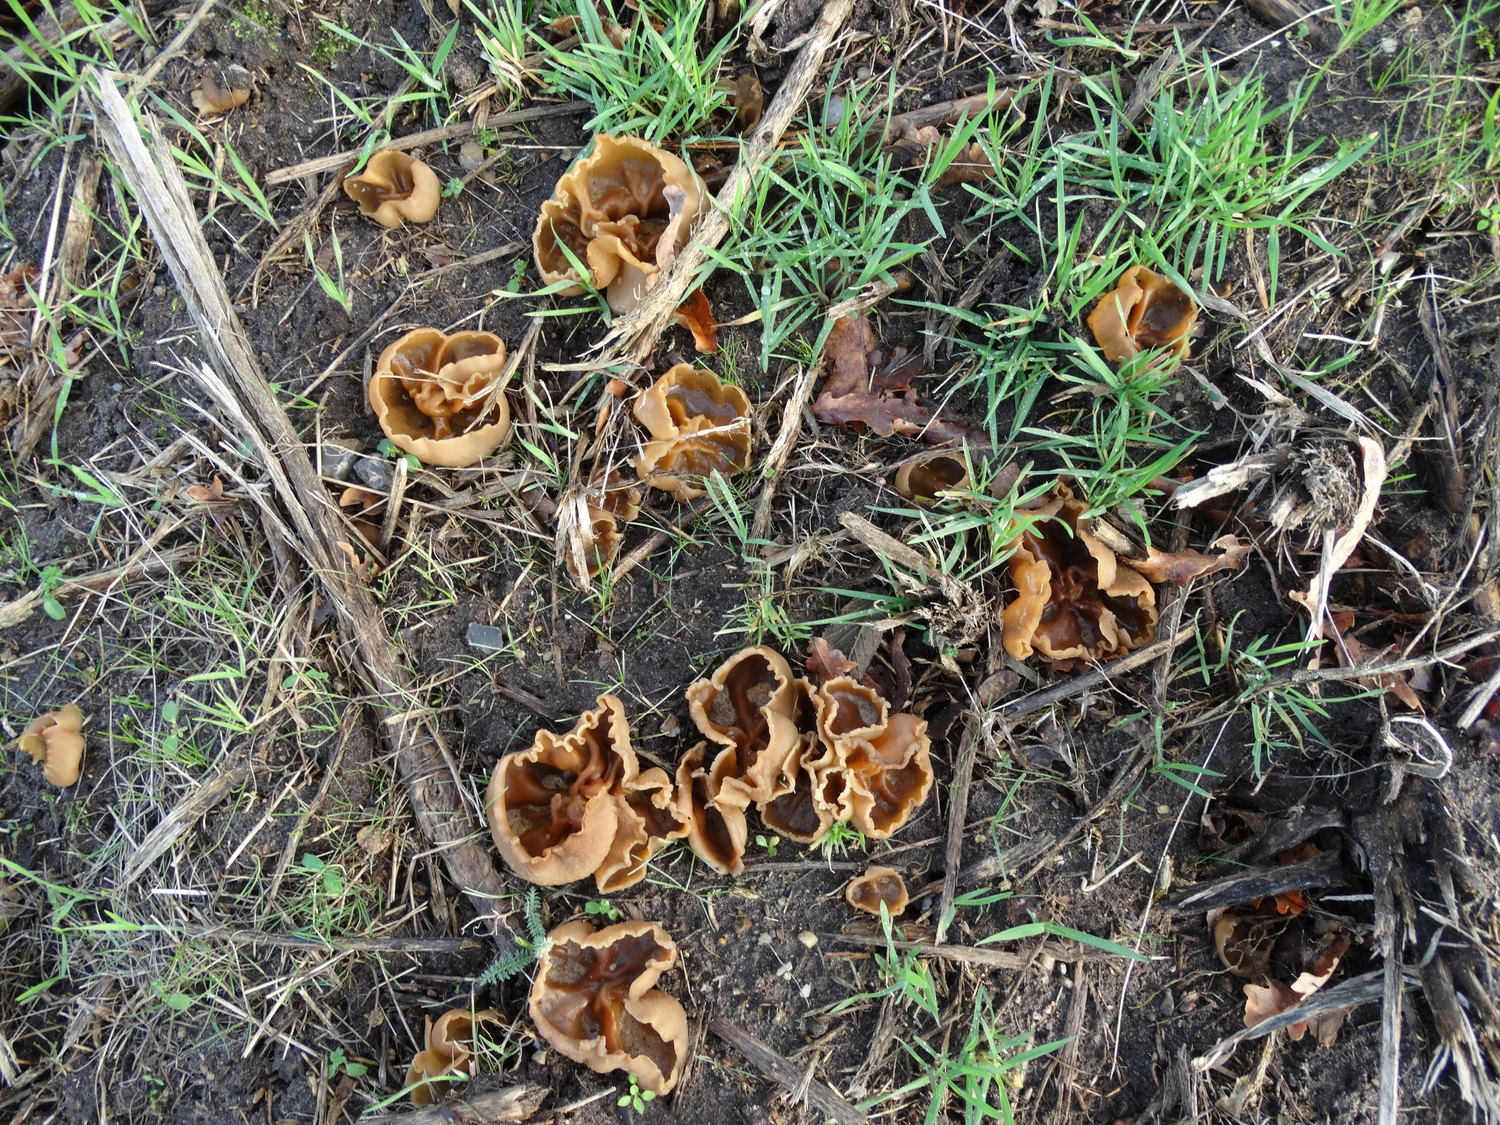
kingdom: Fungi
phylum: Ascomycota
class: Pezizomycetes
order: Pezizales
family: Pezizaceae
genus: Peziza
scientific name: Peziza vesiculosa
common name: blære-bægersvamp
